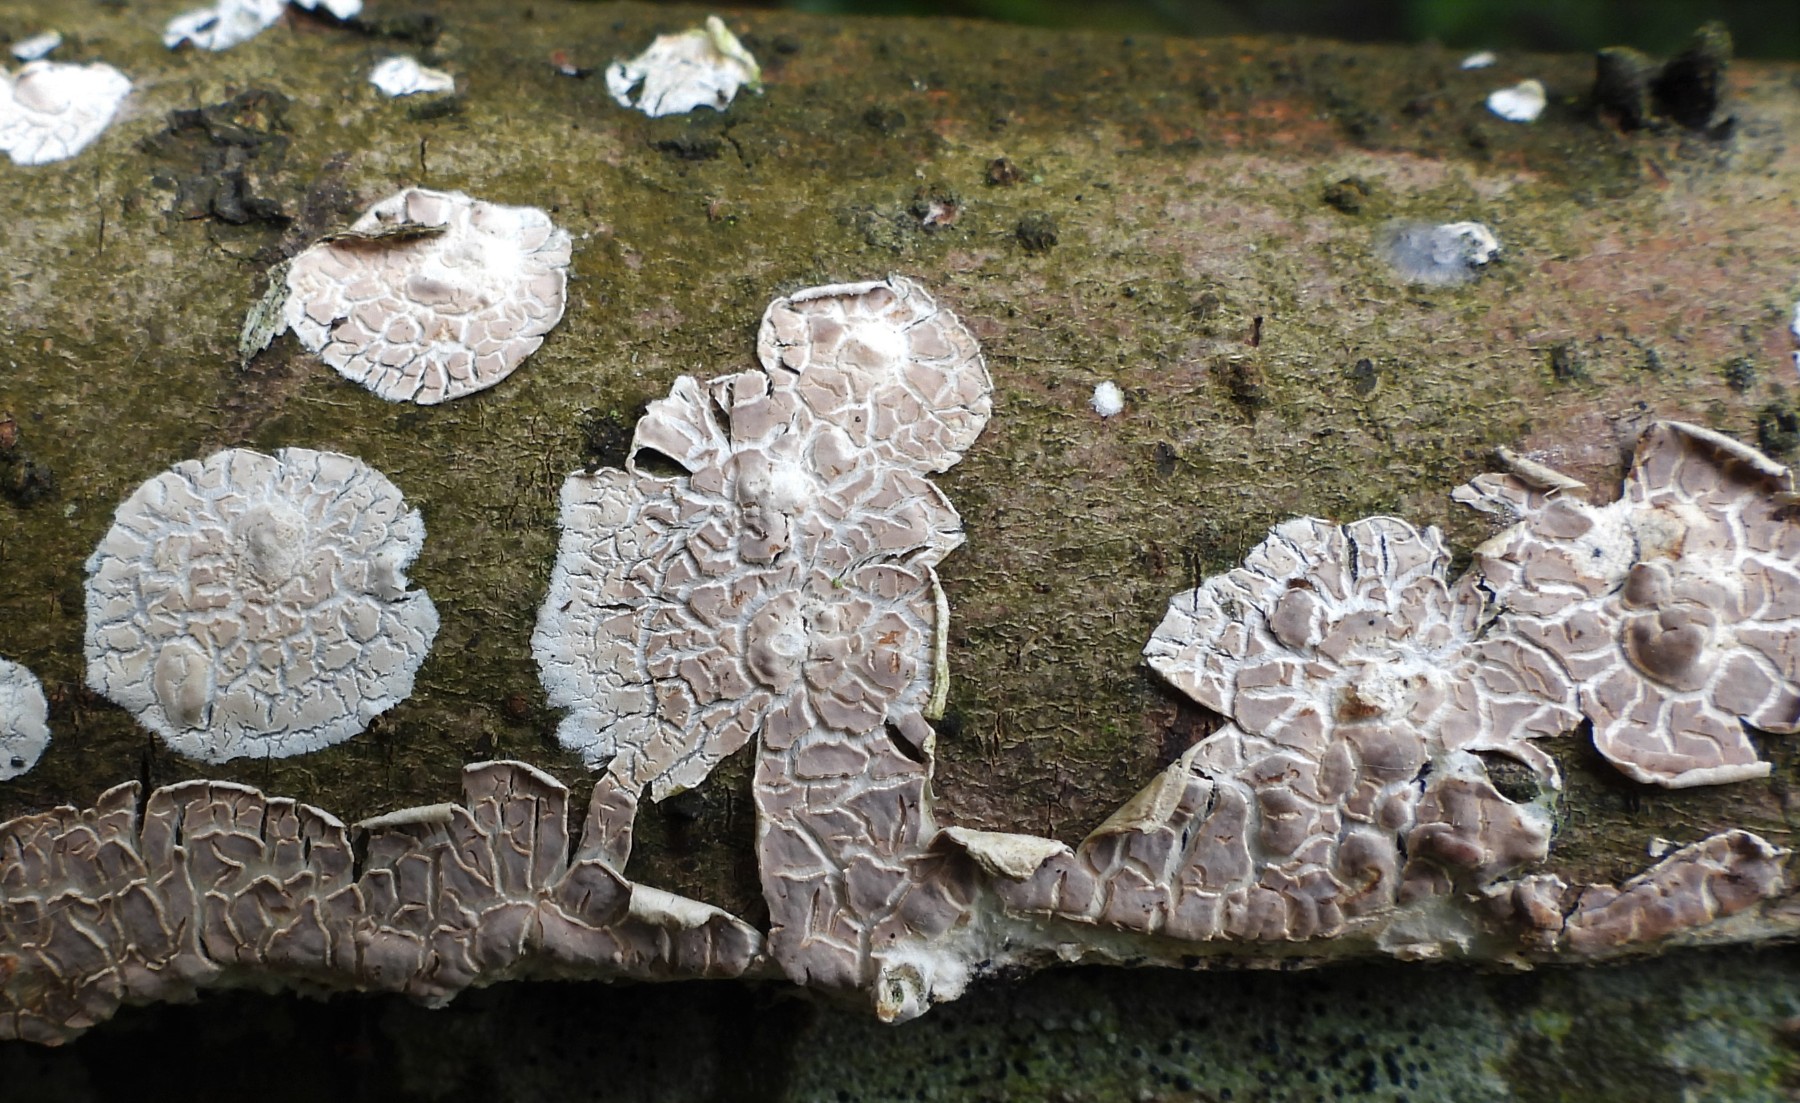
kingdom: Fungi
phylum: Basidiomycota
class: Agaricomycetes
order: Agaricales
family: Physalacriaceae
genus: Cylindrobasidium
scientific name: Cylindrobasidium evolvens
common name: sprækkehinde
